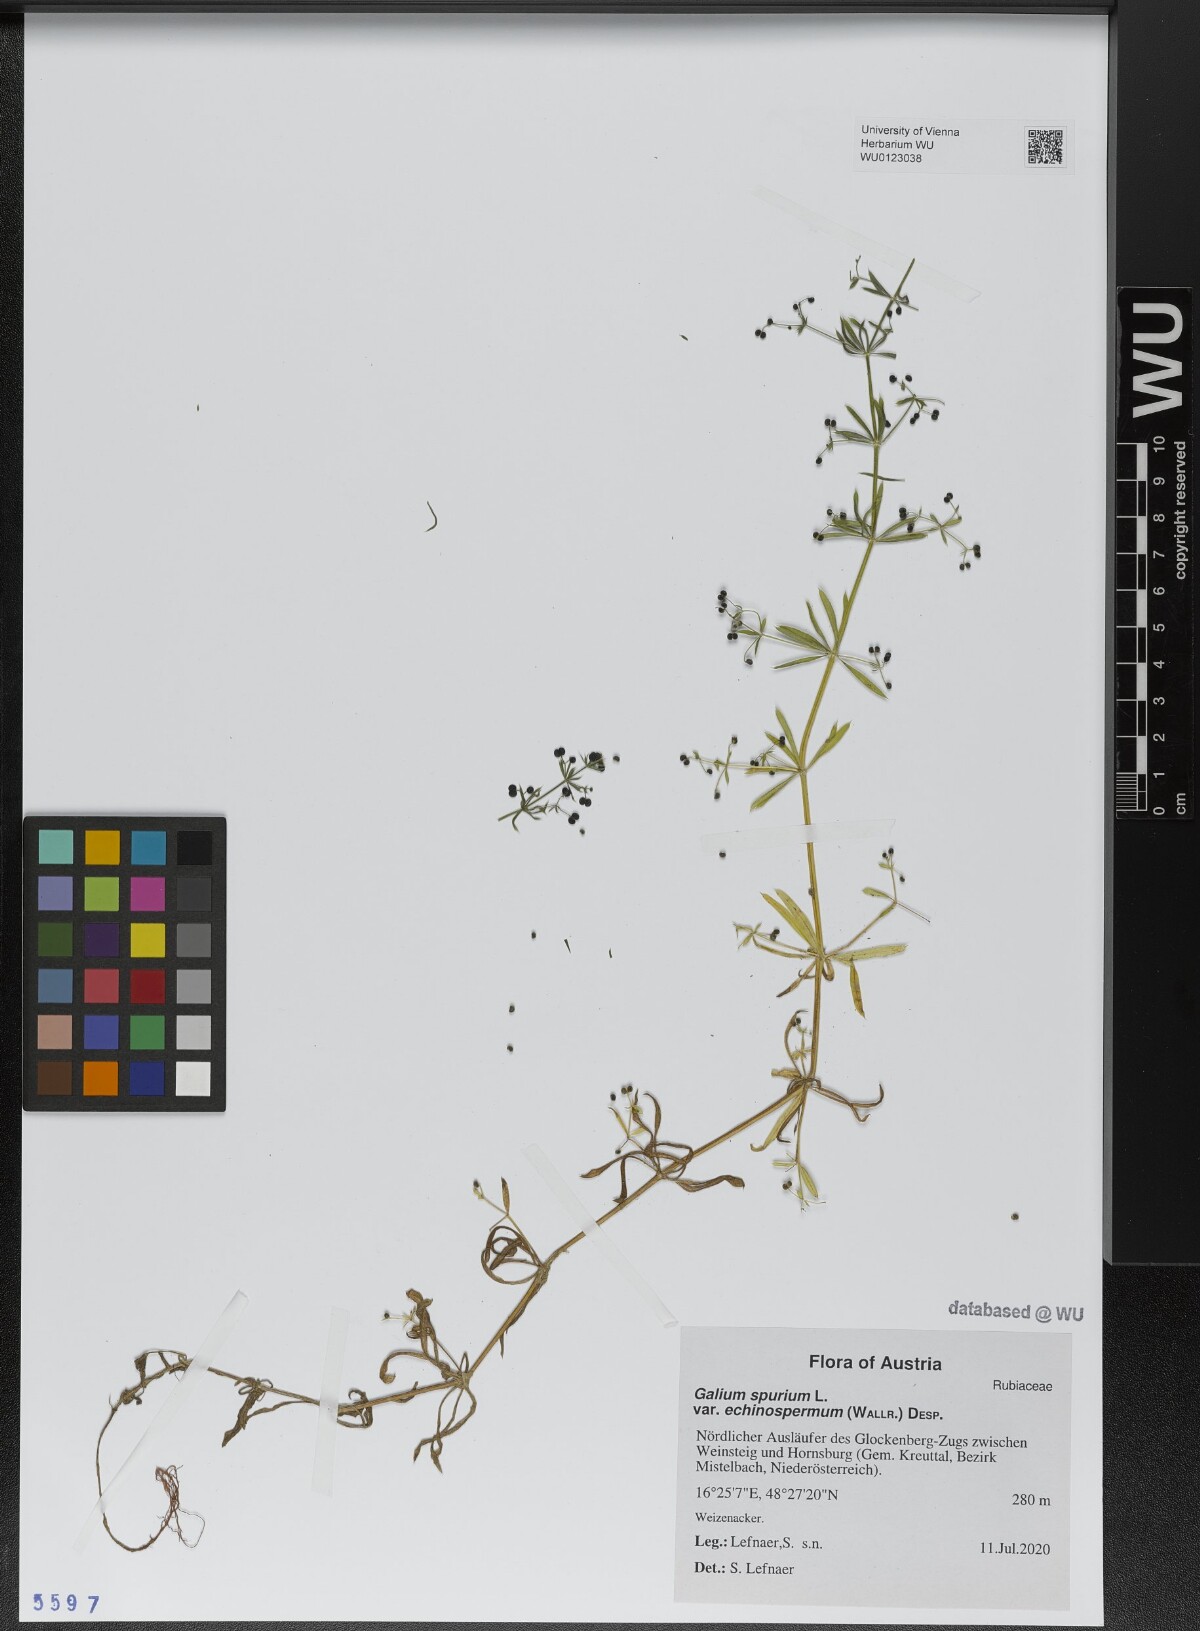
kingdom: Plantae
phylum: Tracheophyta
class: Magnoliopsida
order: Gentianales
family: Rubiaceae
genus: Galium
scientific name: Galium
